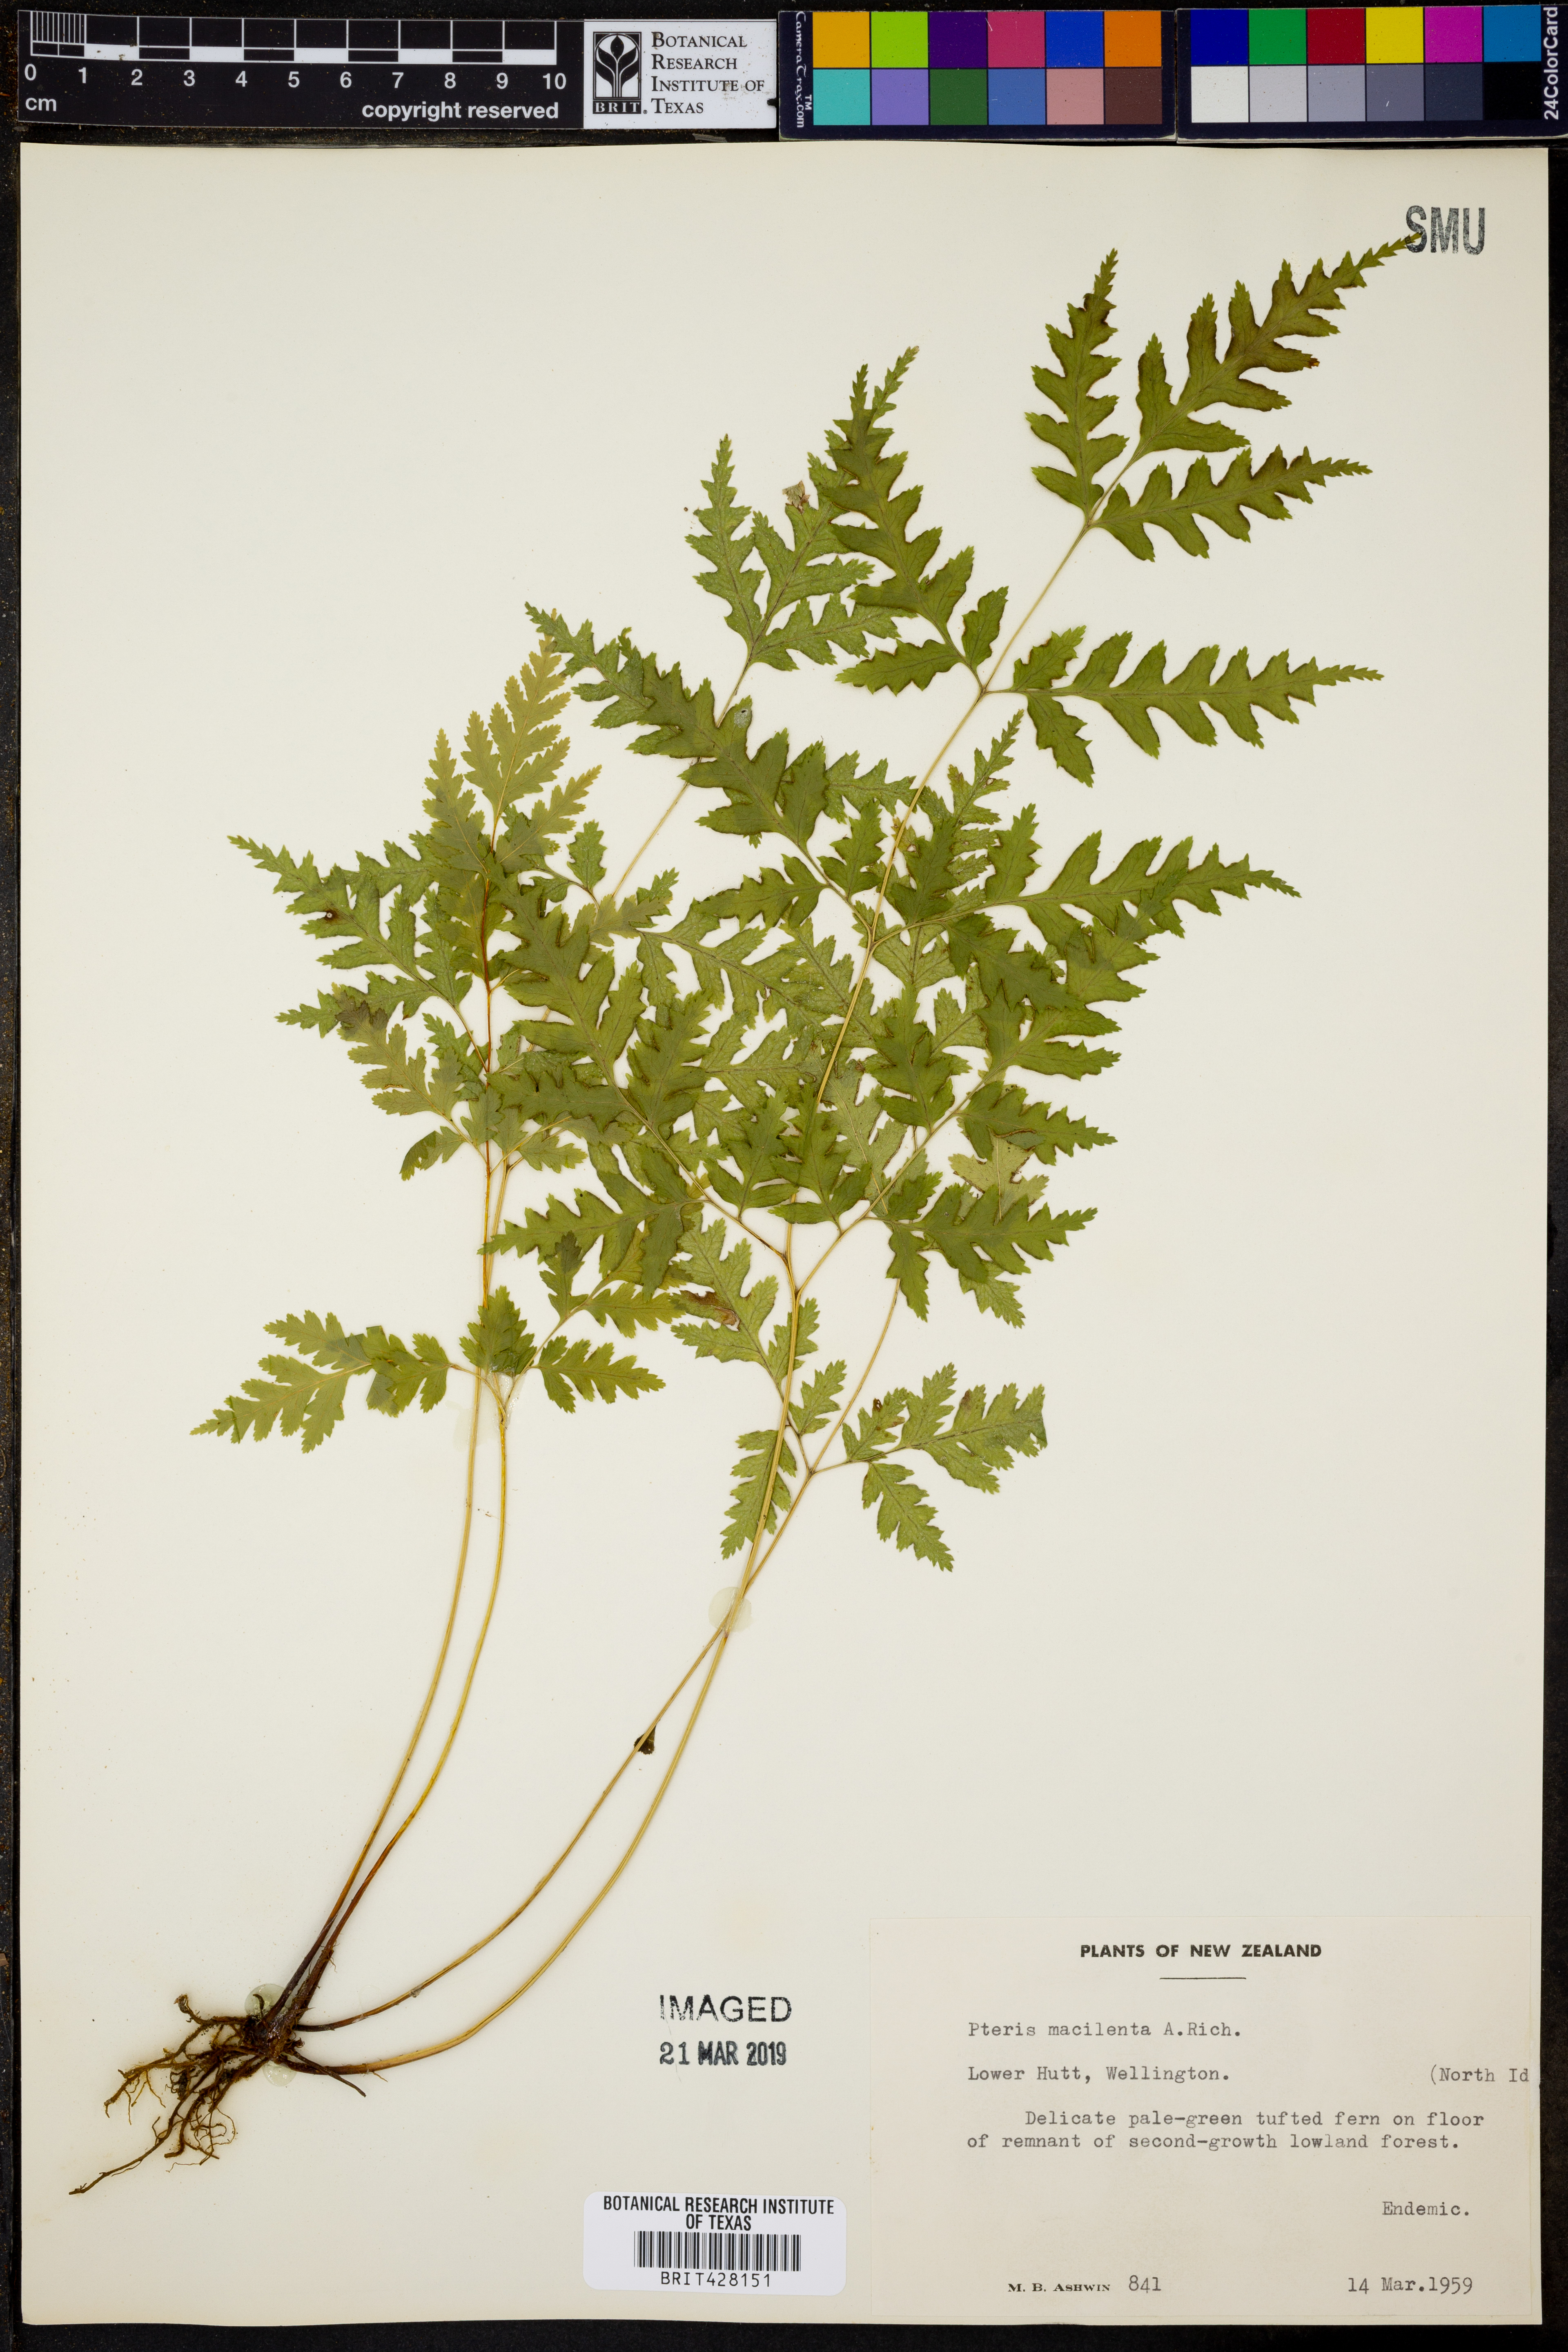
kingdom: Plantae
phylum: Tracheophyta
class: Polypodiopsida
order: Polypodiales
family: Pteridaceae
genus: Pteris
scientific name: Pteris macilenta
